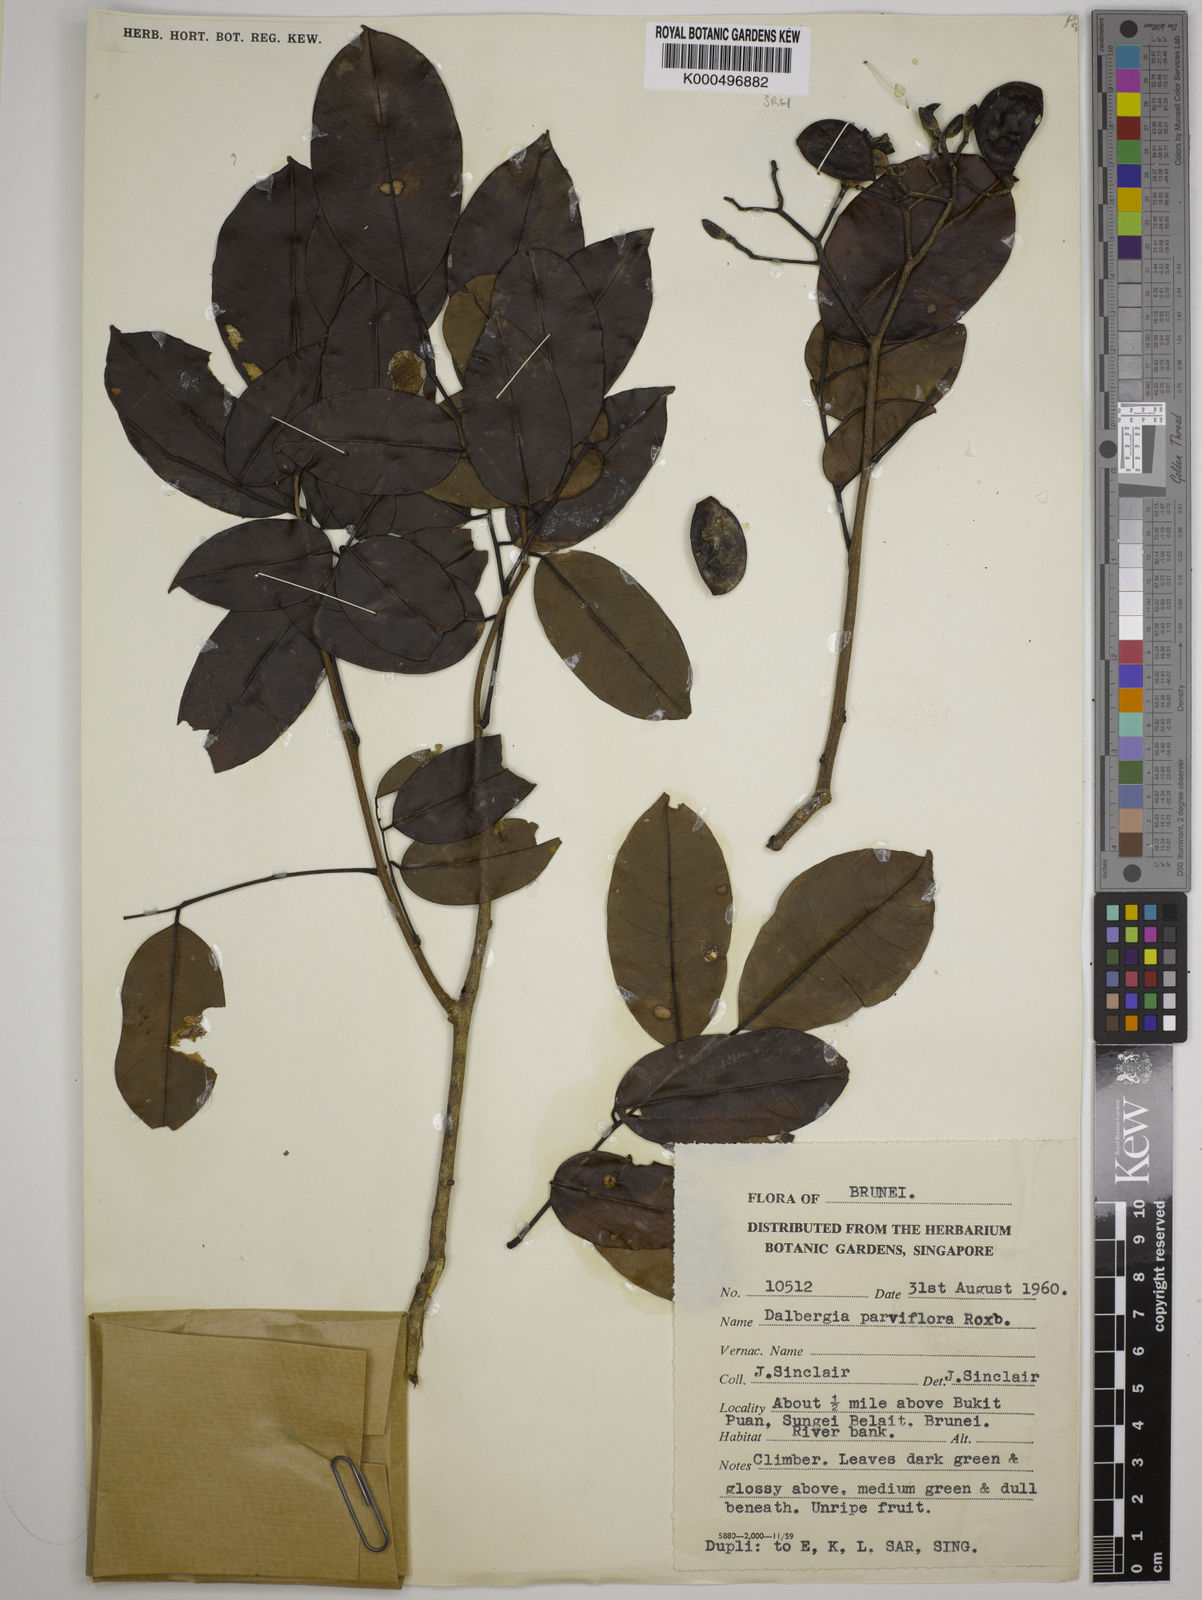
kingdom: Plantae
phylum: Tracheophyta
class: Magnoliopsida
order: Fabales
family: Fabaceae
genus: Dalbergia
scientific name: Dalbergia parviflora
